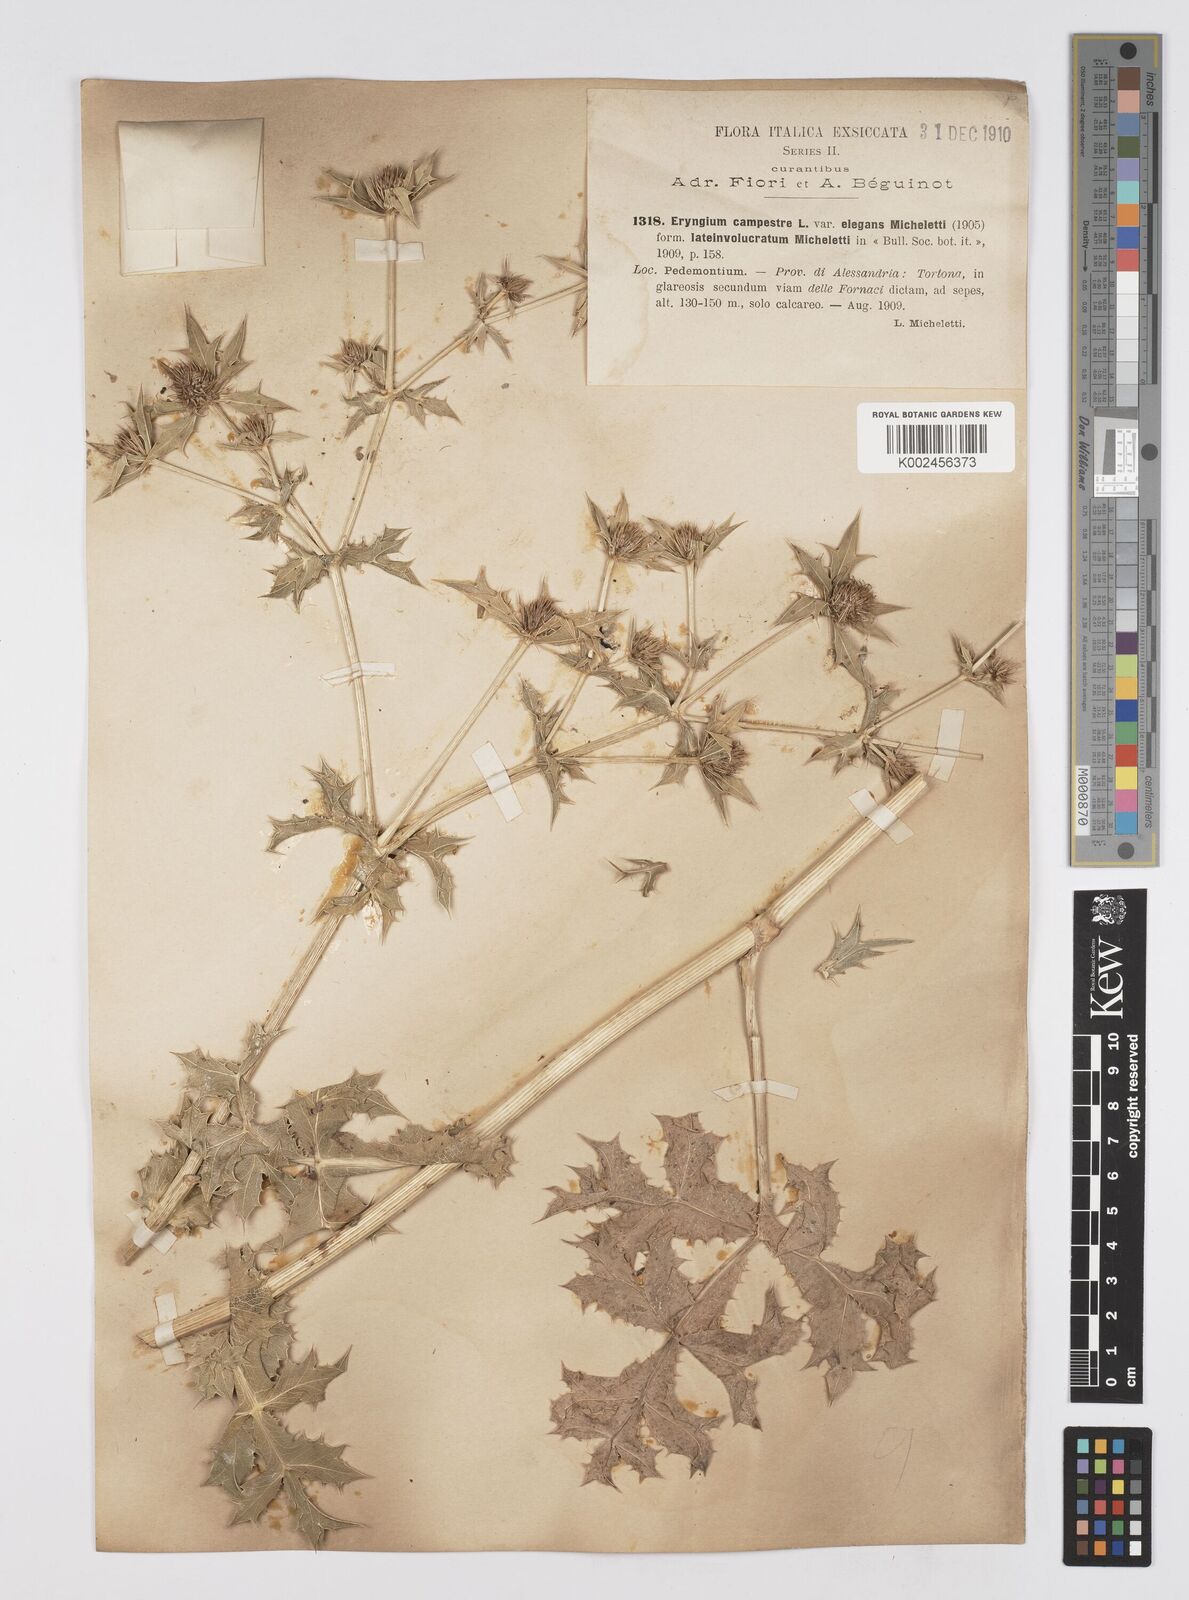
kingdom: Plantae
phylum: Tracheophyta
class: Magnoliopsida
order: Apiales
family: Apiaceae
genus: Eryngium
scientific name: Eryngium campestre
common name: Field eryngo
